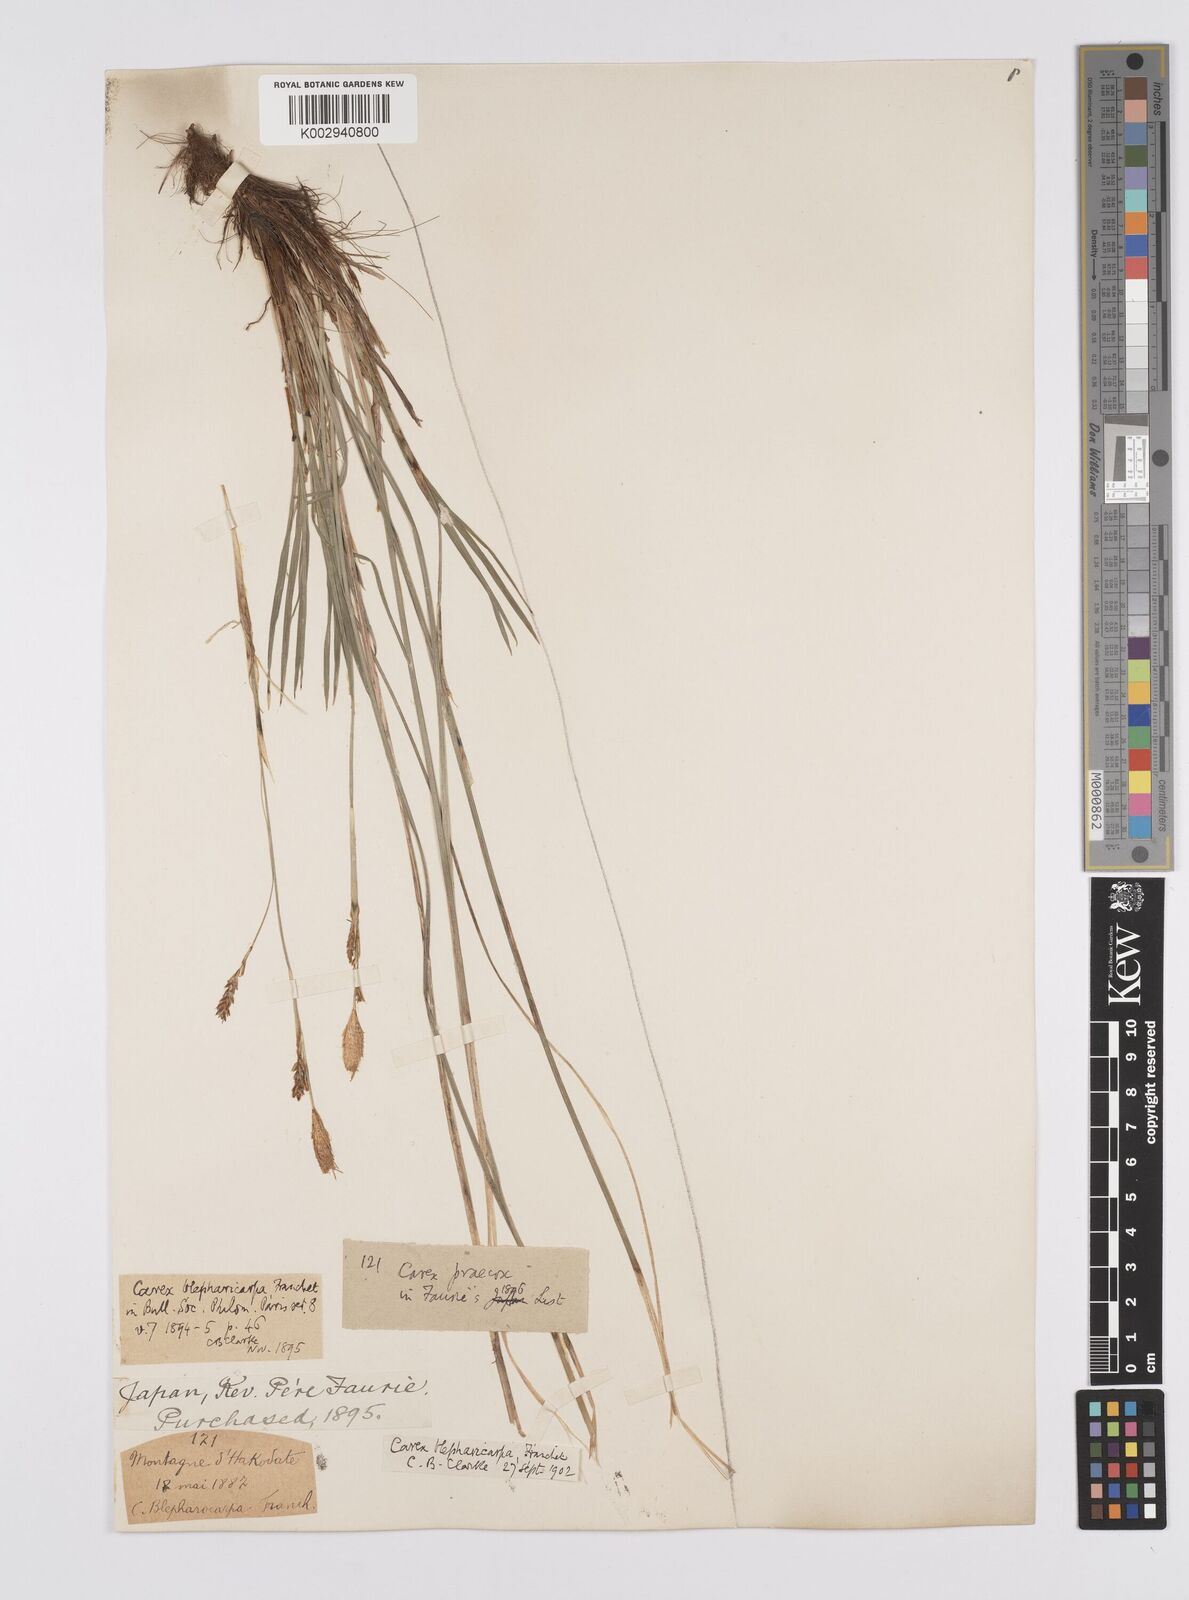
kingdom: Plantae
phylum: Tracheophyta
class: Liliopsida
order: Poales
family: Cyperaceae
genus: Carex
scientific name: Carex blepharicarpa
